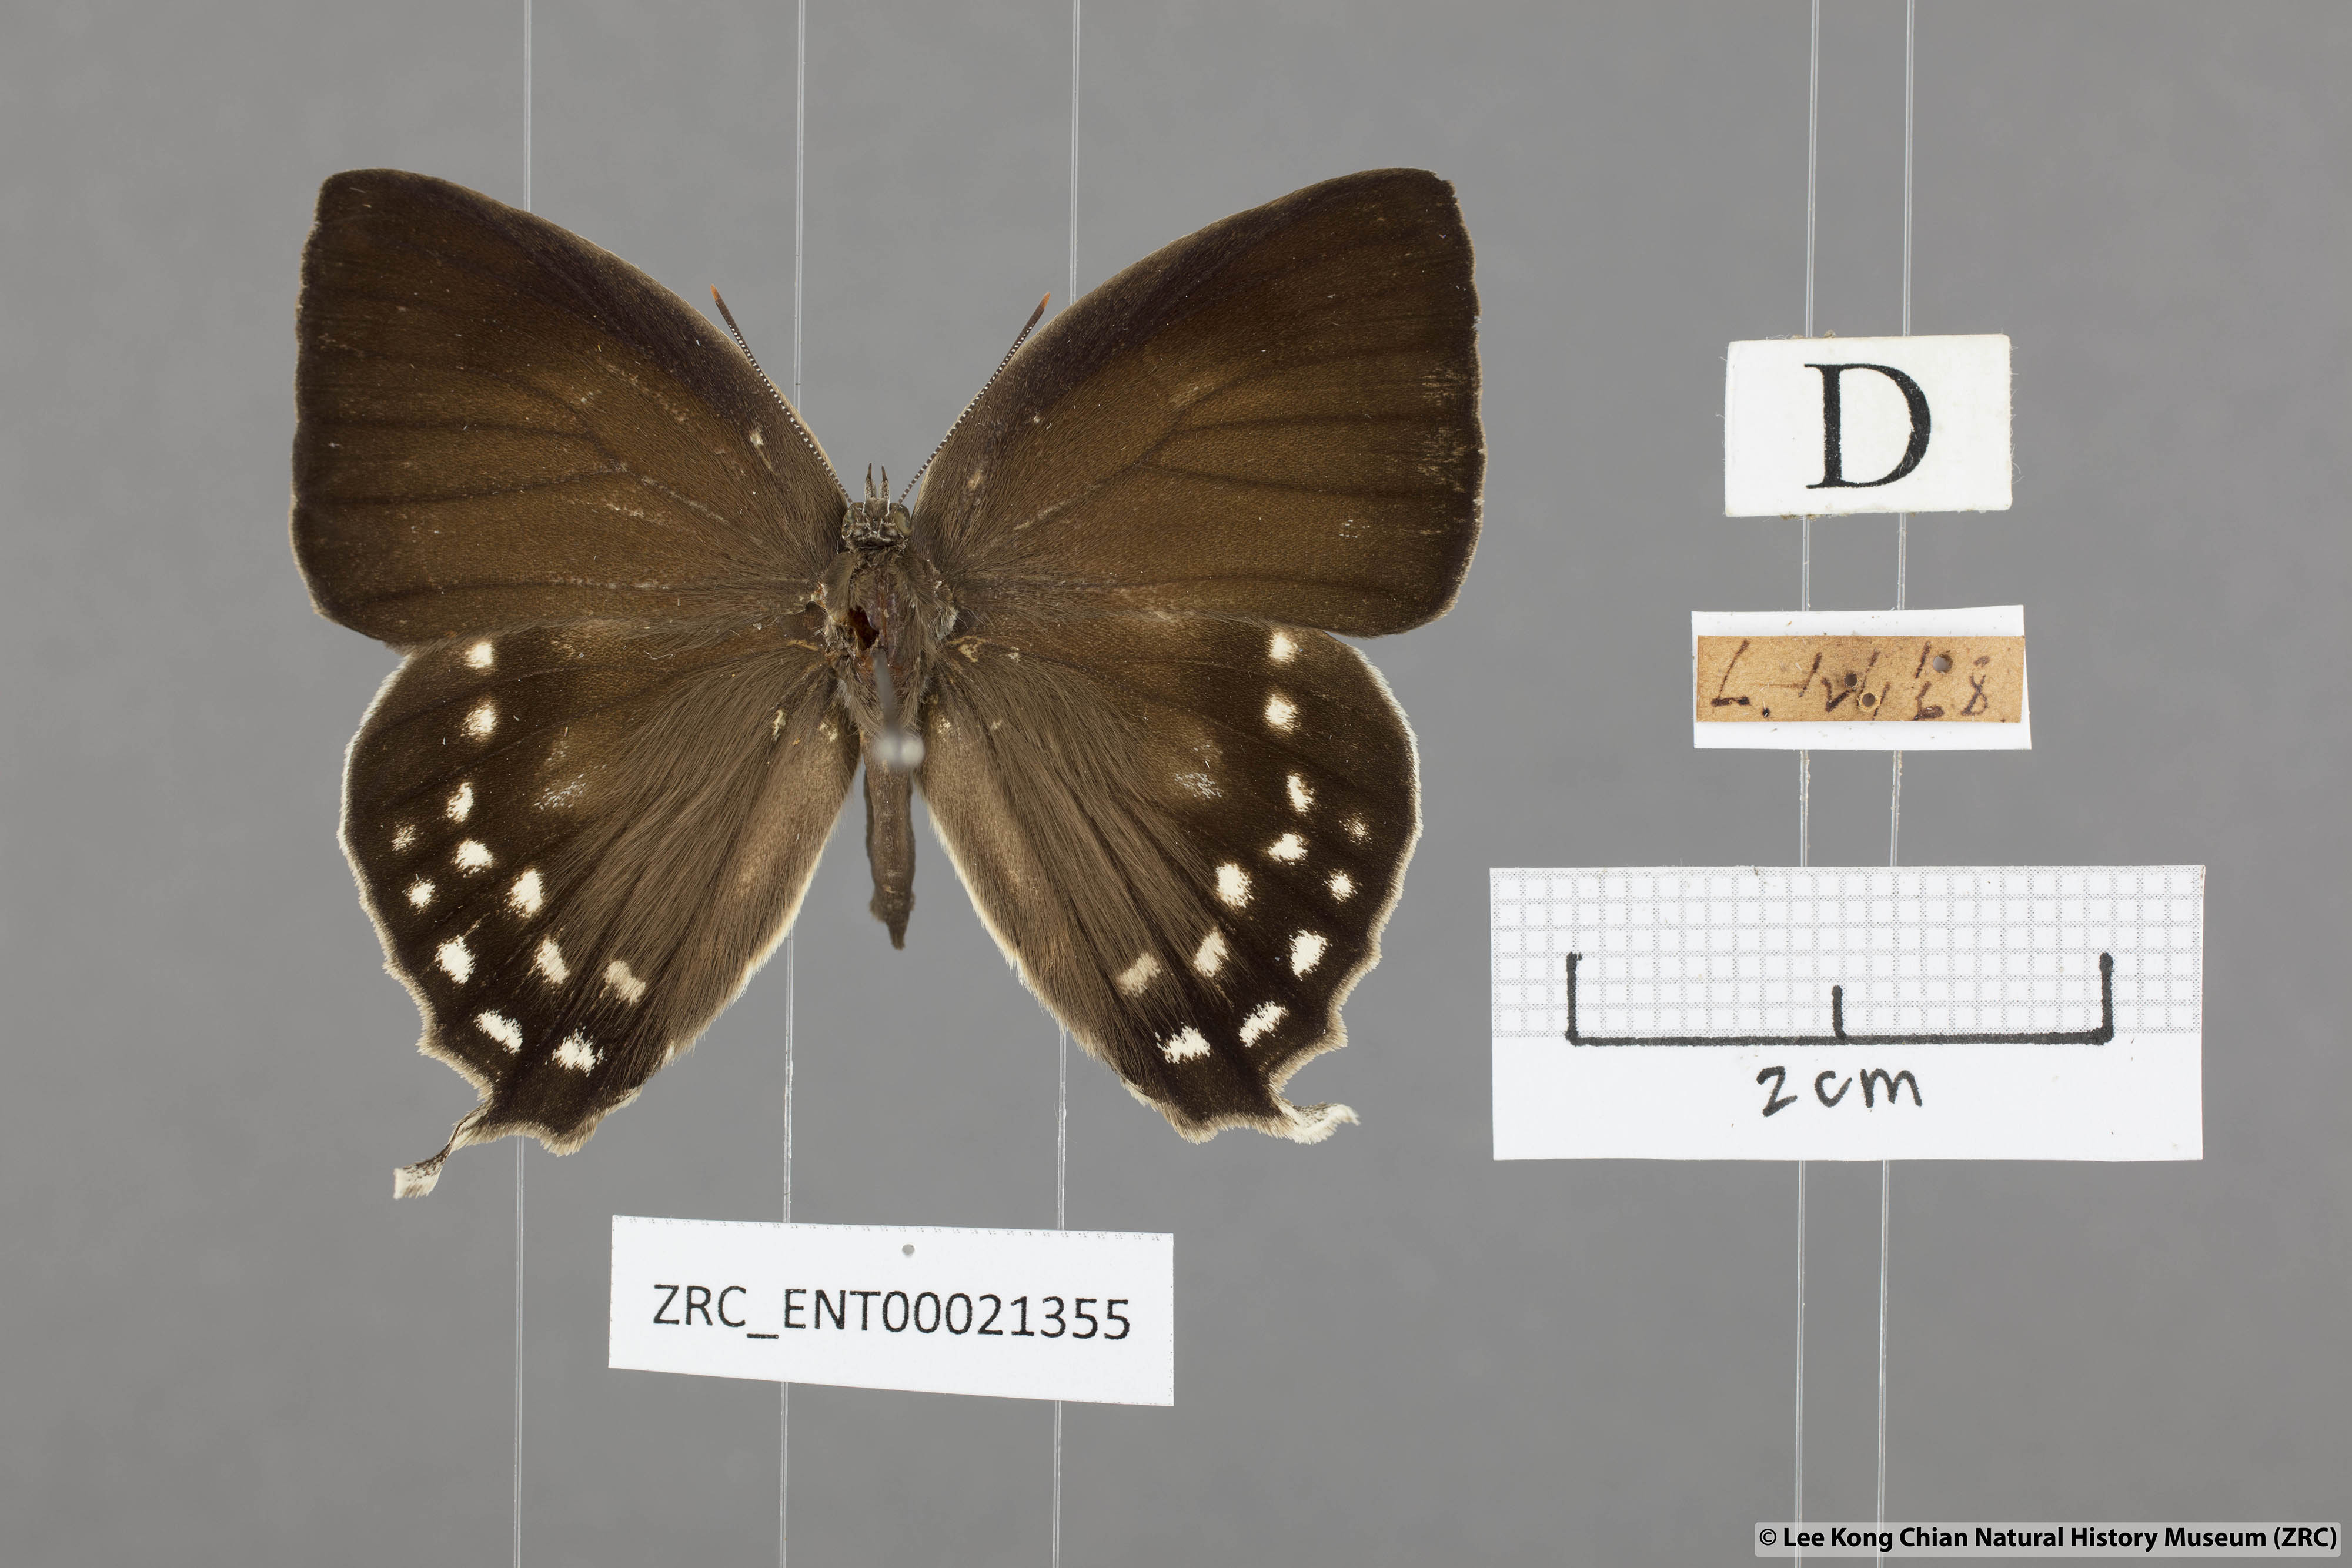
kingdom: Animalia
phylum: Arthropoda
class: Insecta
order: Lepidoptera
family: Lycaenidae
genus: Drina
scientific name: Drina donina
